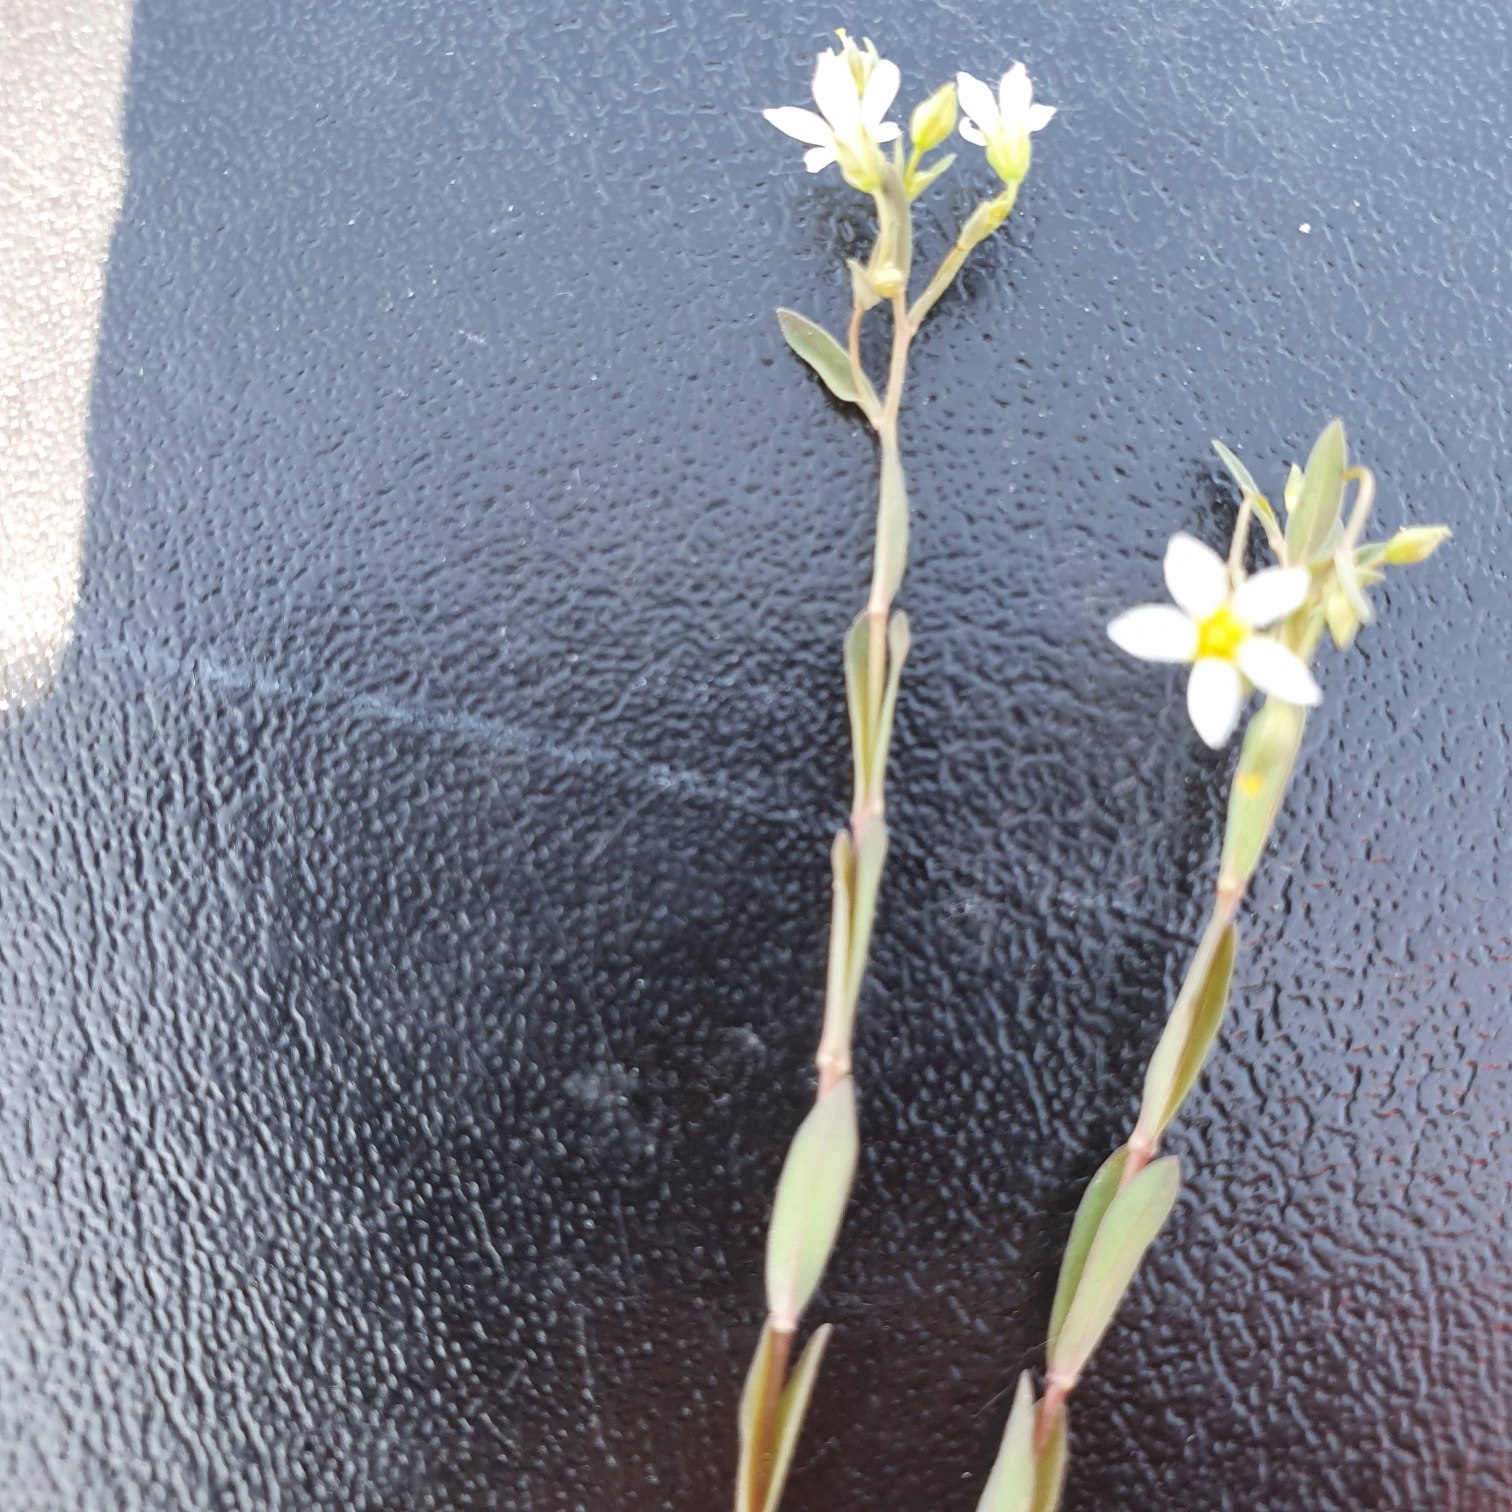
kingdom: Plantae
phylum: Tracheophyta
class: Magnoliopsida
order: Malpighiales
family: Linaceae
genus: Linum
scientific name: Linum catharticum
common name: Vild hør
